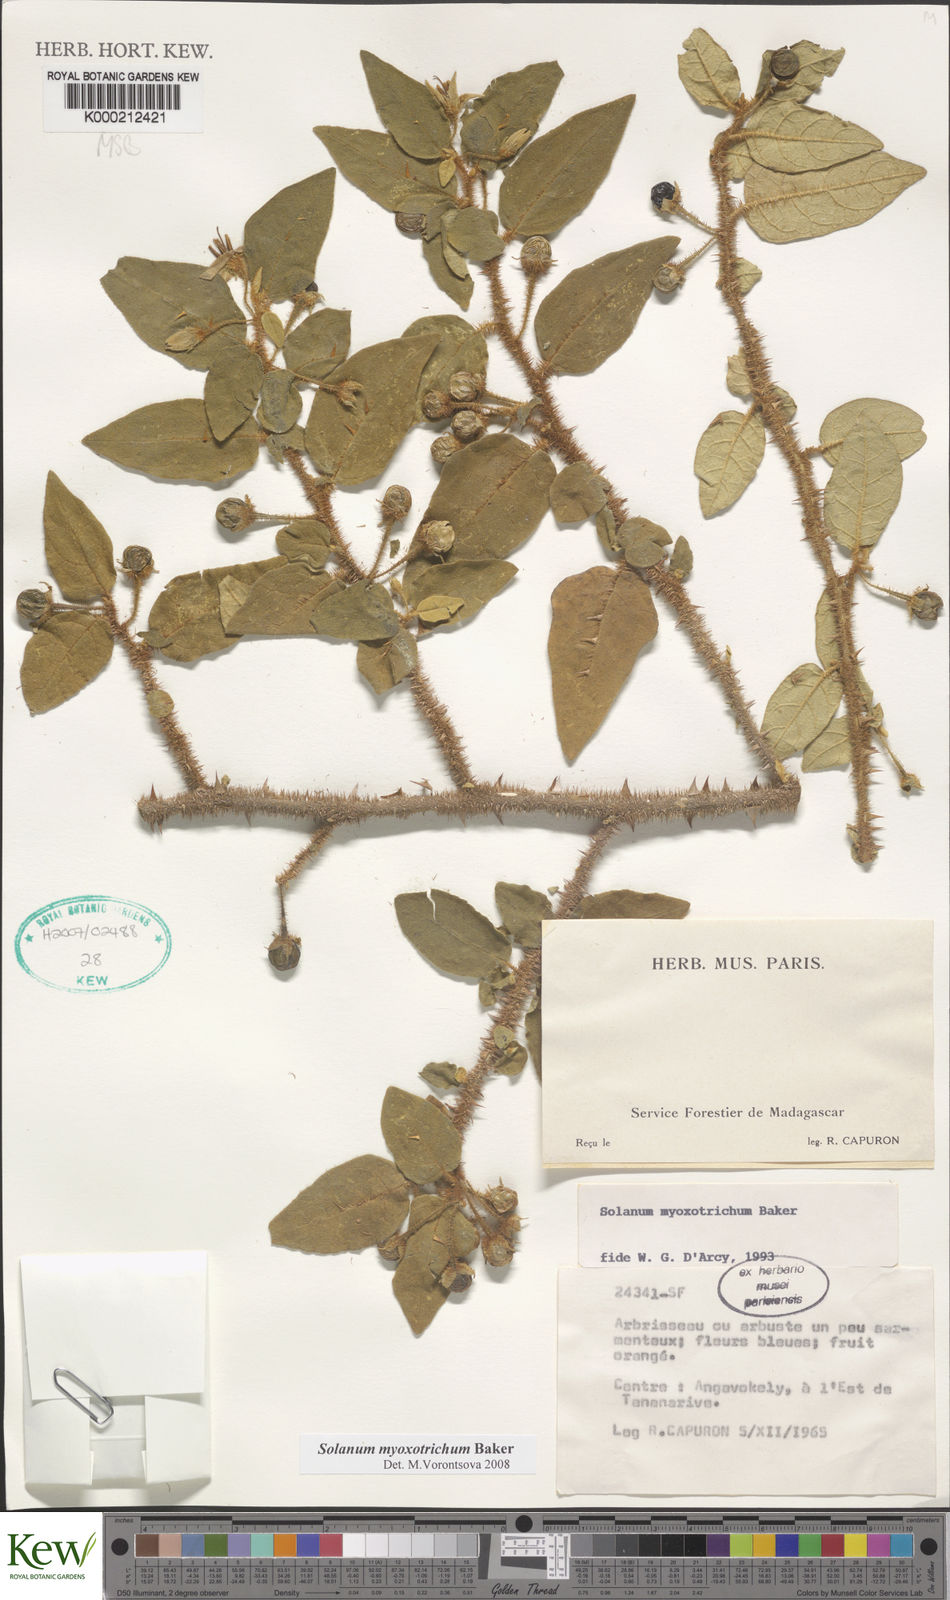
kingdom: Plantae
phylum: Tracheophyta
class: Magnoliopsida
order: Solanales
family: Solanaceae
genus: Solanum
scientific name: Solanum myoxotrichum
